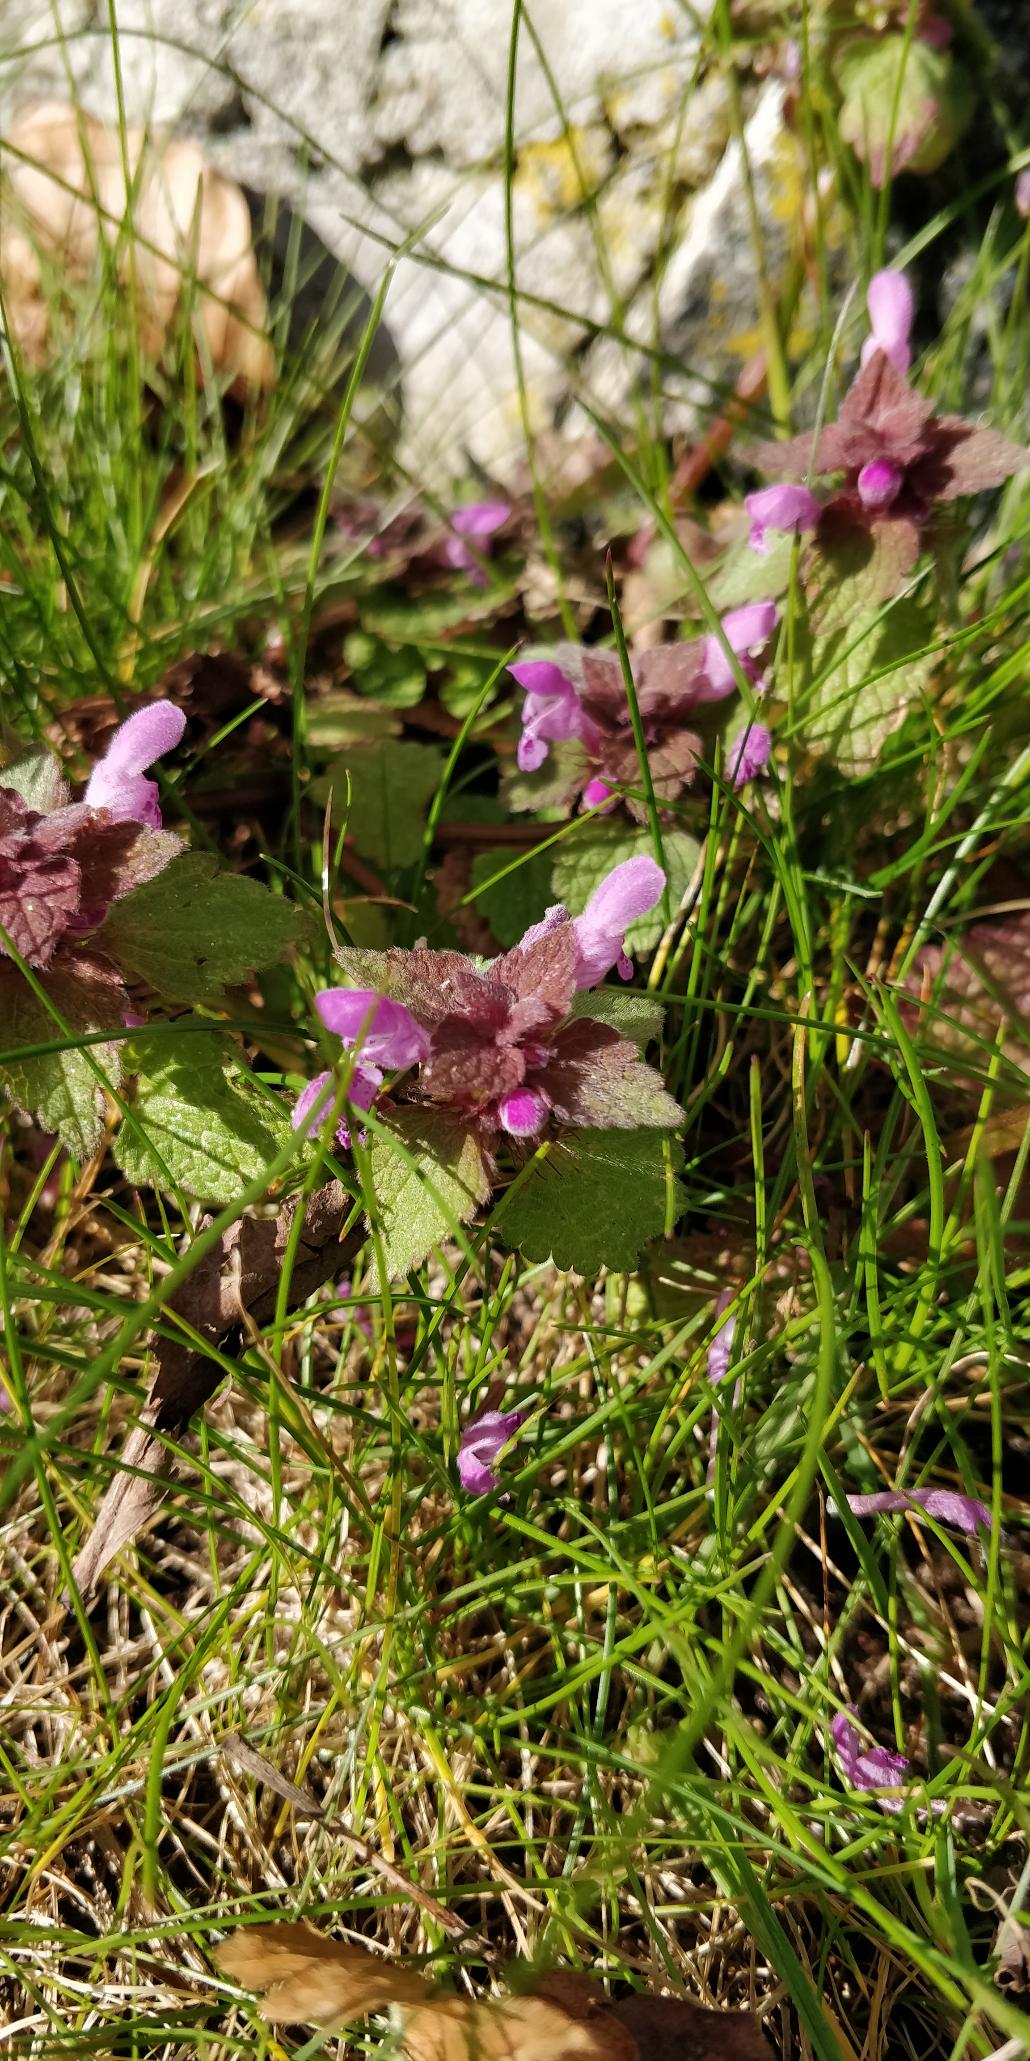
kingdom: Plantae
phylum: Tracheophyta
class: Magnoliopsida
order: Lamiales
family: Lamiaceae
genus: Lamium
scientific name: Lamium purpureum
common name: Rød tvetand
